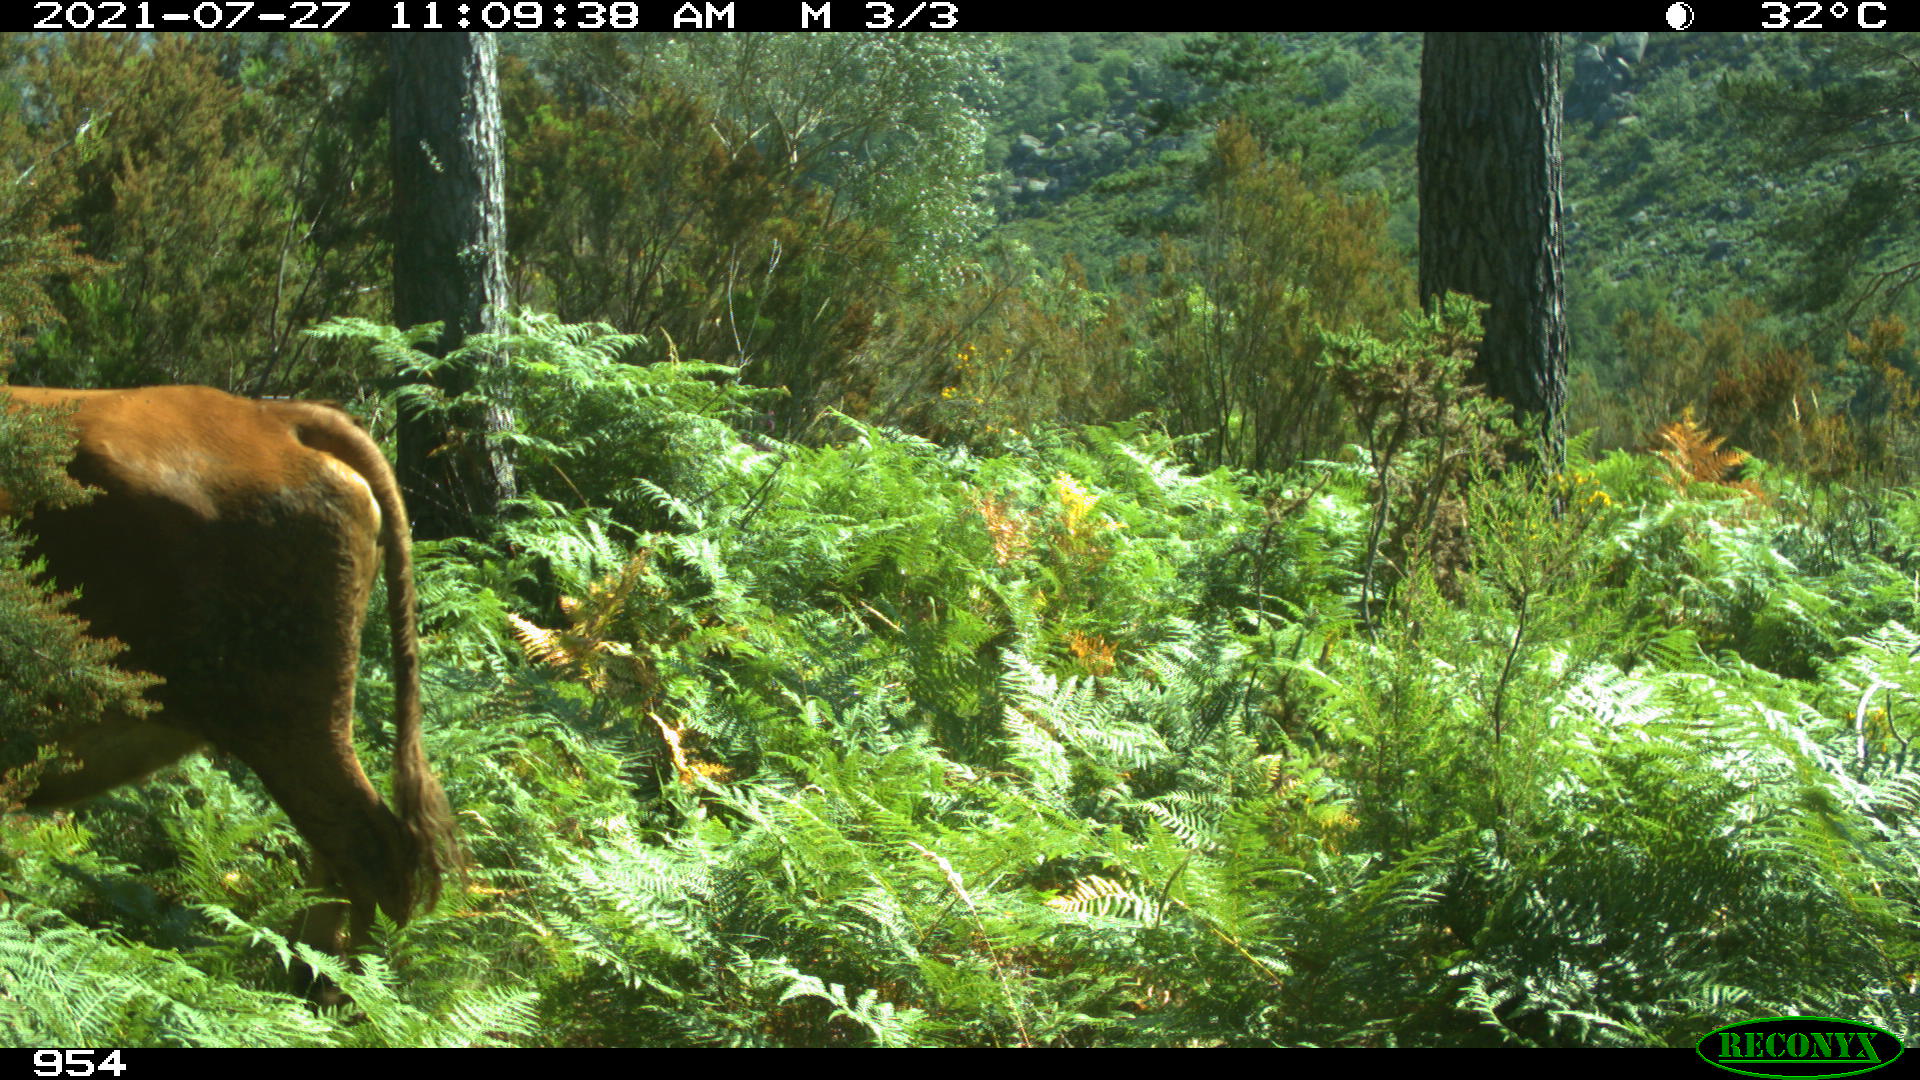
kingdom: Animalia
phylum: Chordata
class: Mammalia
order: Artiodactyla
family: Bovidae
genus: Bos
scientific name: Bos taurus
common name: Domesticated cattle
